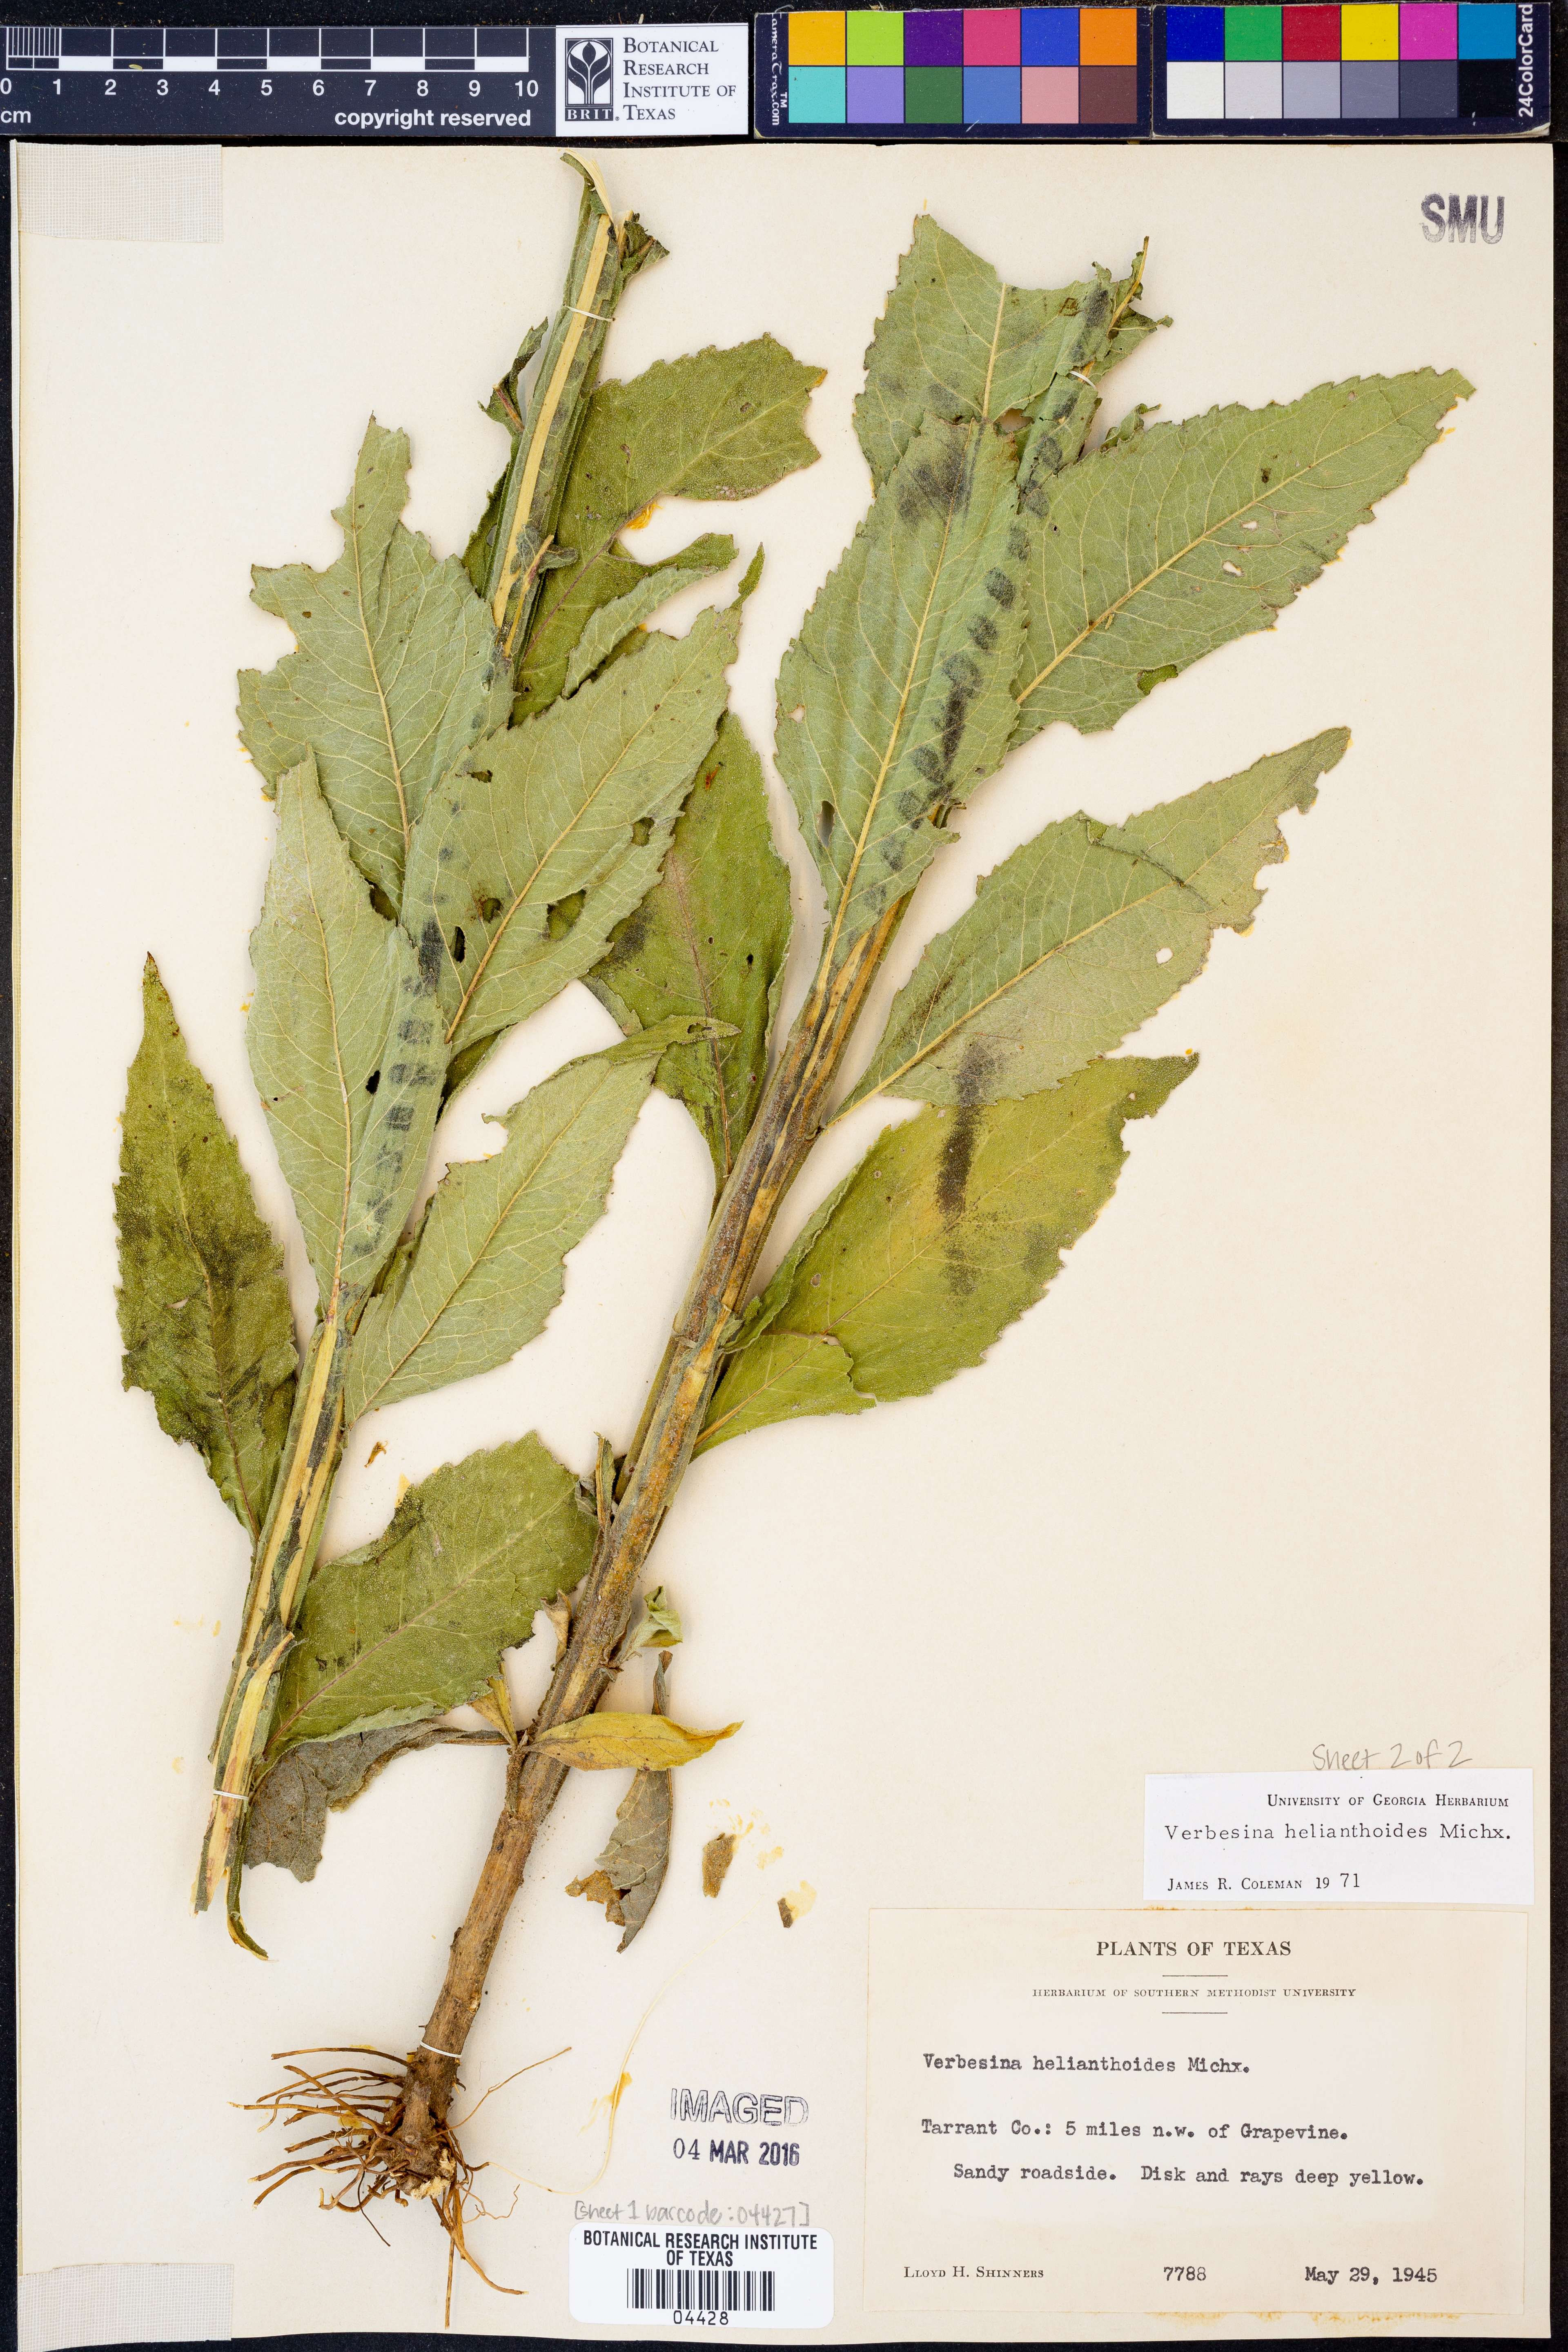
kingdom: Plantae
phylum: Tracheophyta
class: Magnoliopsida
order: Asterales
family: Asteraceae
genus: Verbesina
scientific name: Verbesina helianthoides
